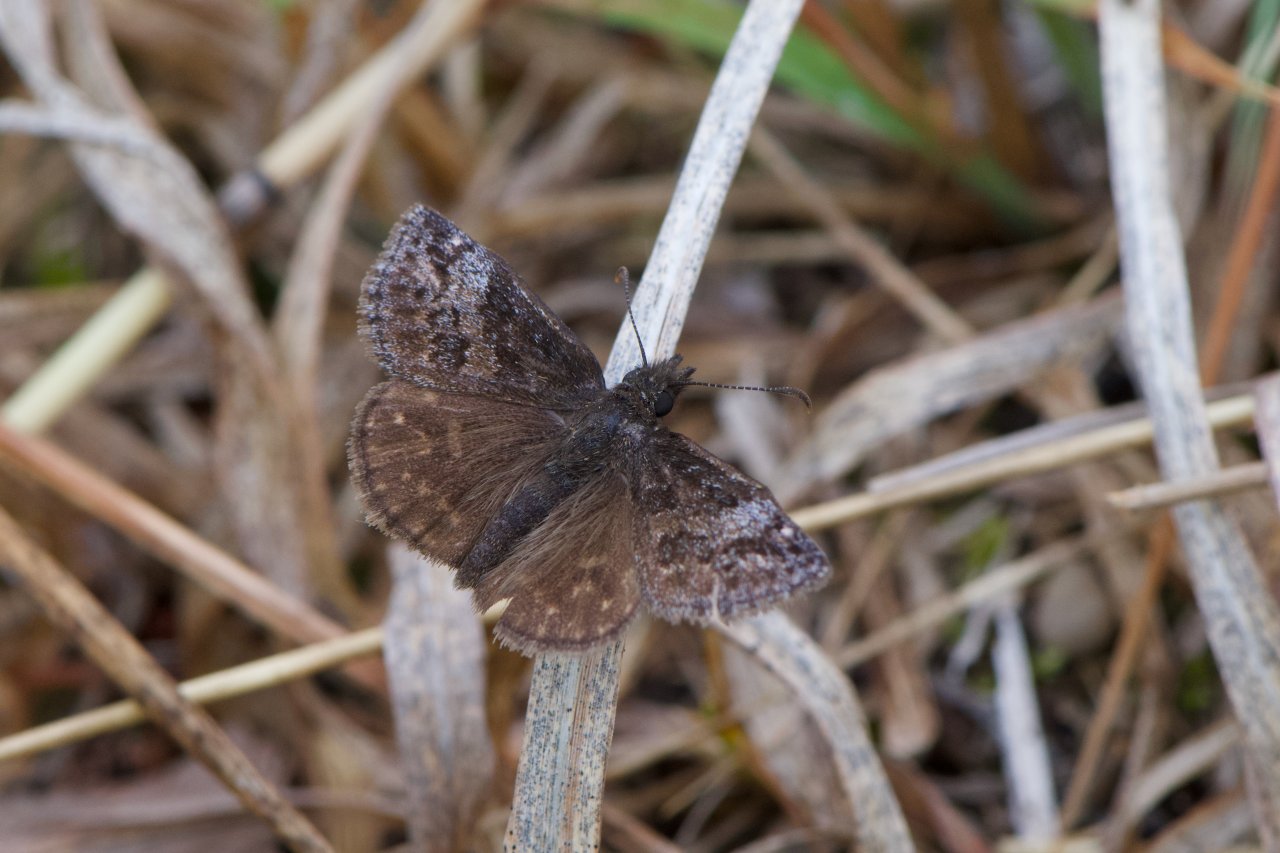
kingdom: Animalia
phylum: Arthropoda
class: Insecta
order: Lepidoptera
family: Hesperiidae
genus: Erynnis
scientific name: Erynnis icelus
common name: Dreamy Duskywing
